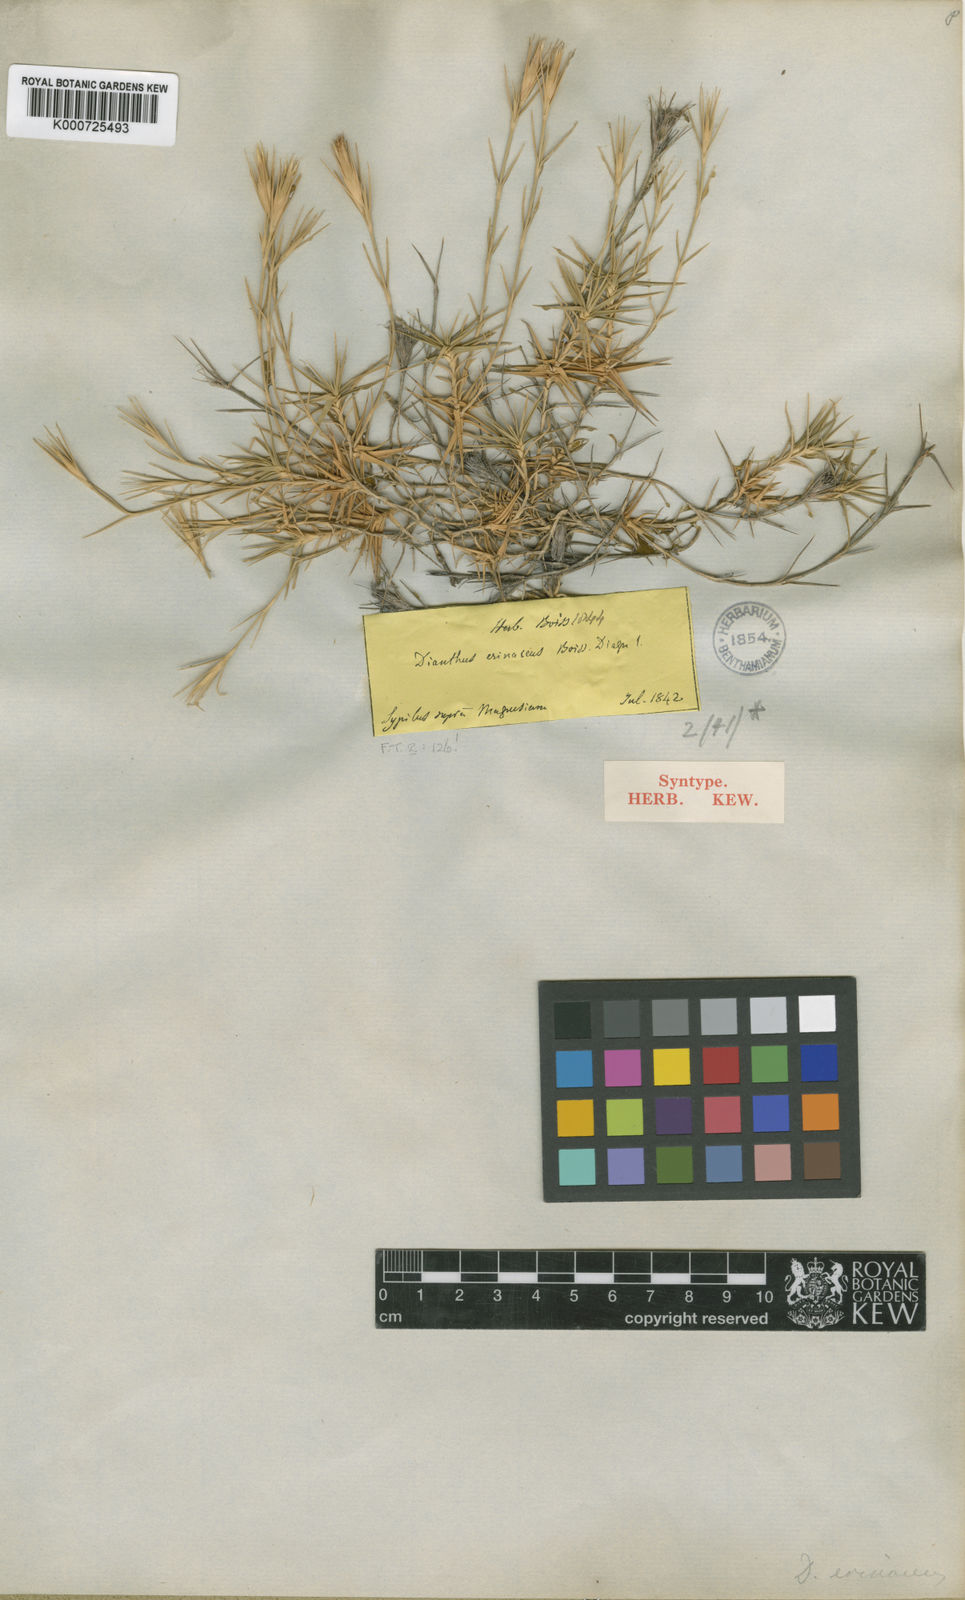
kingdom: Plantae
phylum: Tracheophyta
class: Magnoliopsida
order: Caryophyllales
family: Caryophyllaceae
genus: Dianthus
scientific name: Dianthus webbianus
